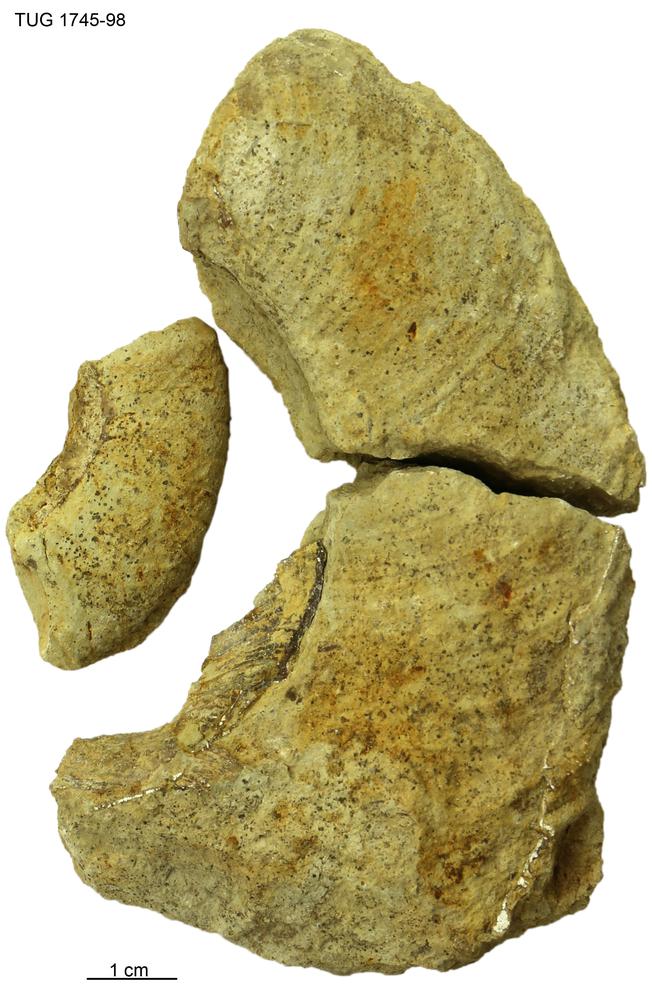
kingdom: Animalia
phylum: Mollusca
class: Cephalopoda
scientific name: Cephalopoda
